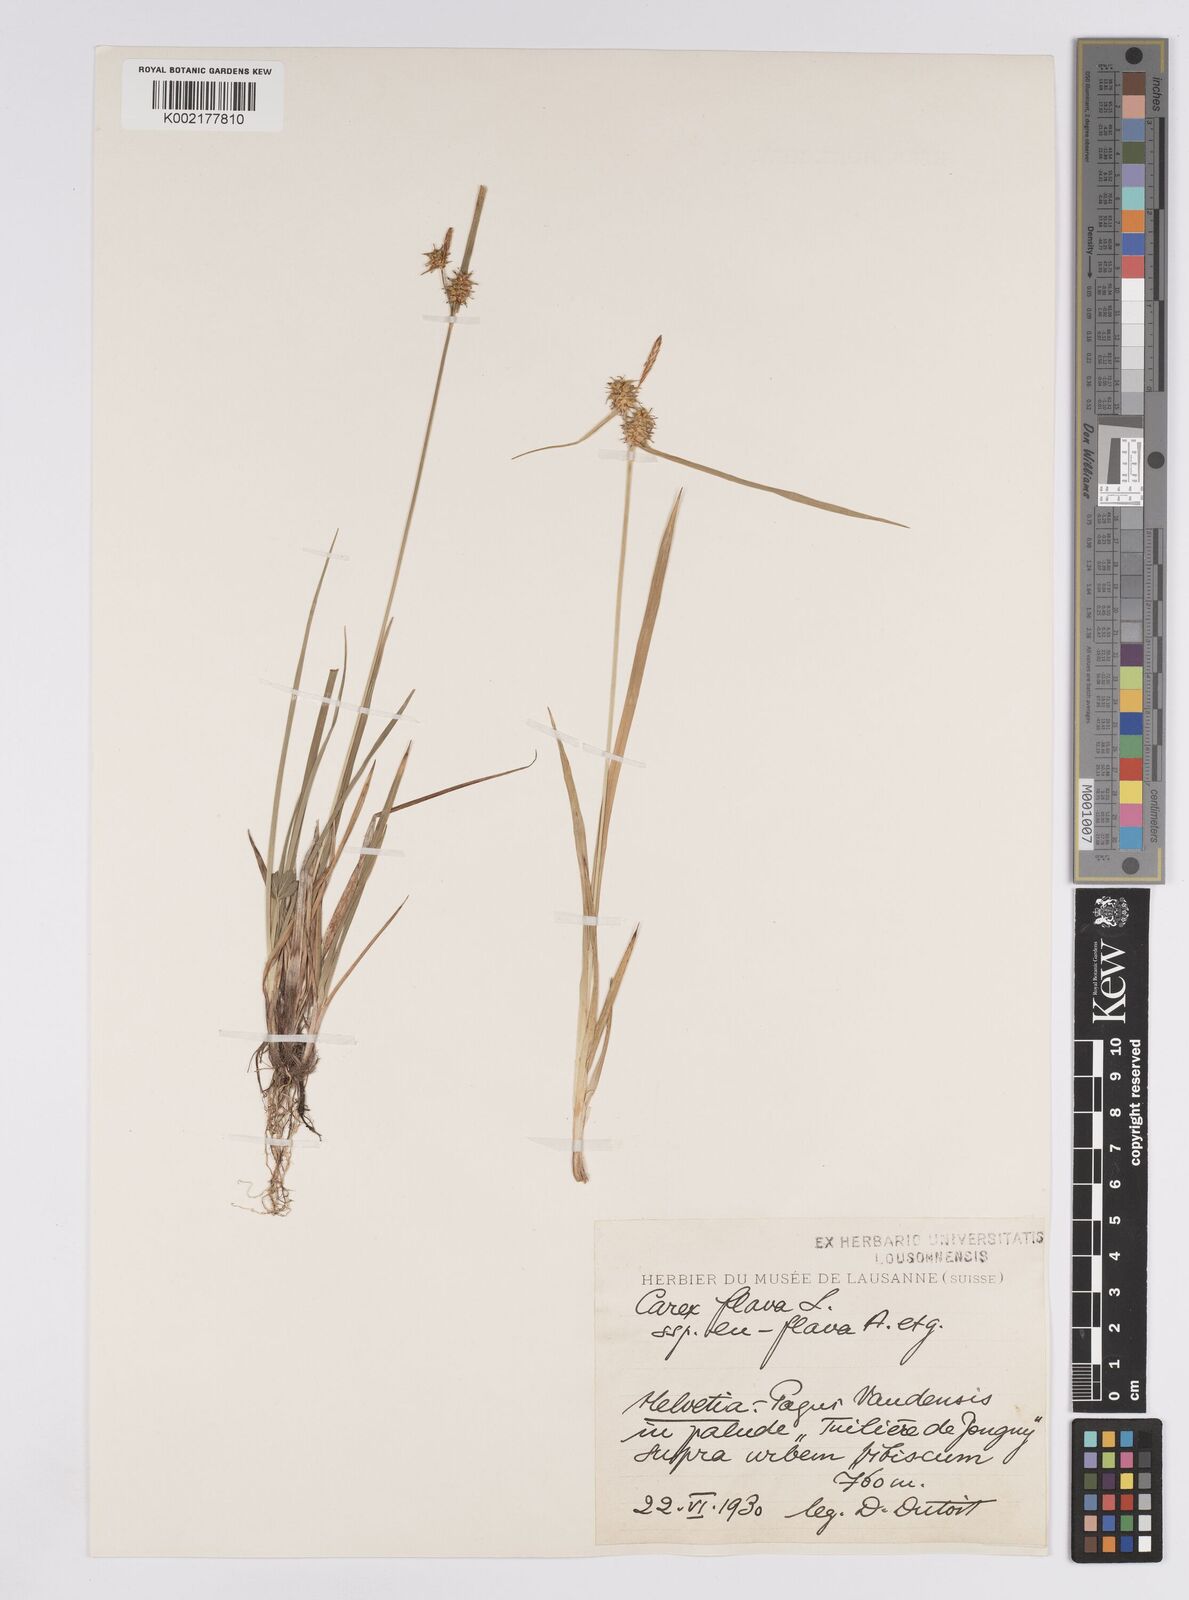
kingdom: Plantae
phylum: Tracheophyta
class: Liliopsida
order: Poales
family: Cyperaceae
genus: Carex
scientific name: Carex flava
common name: Large yellow-sedge
